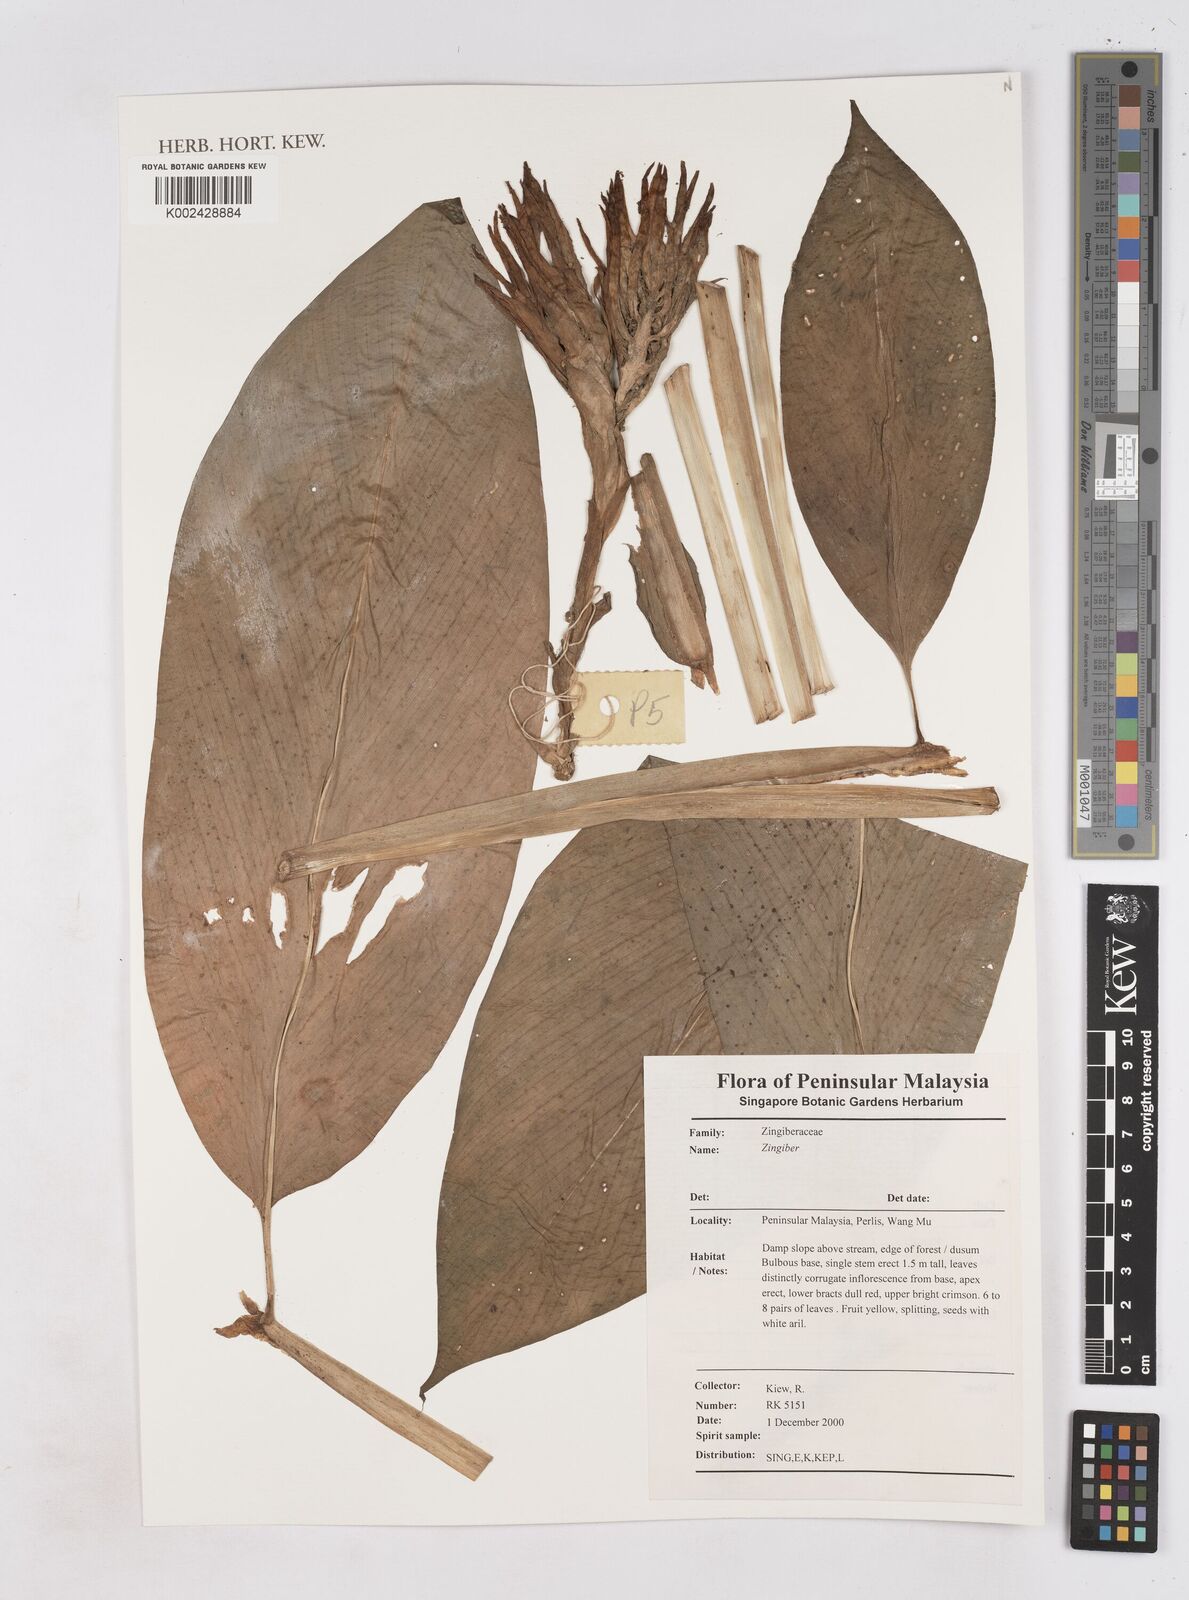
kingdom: Plantae
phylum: Tracheophyta
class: Liliopsida
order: Zingiberales
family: Zingiberaceae
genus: Zingiber
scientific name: Zingiber
